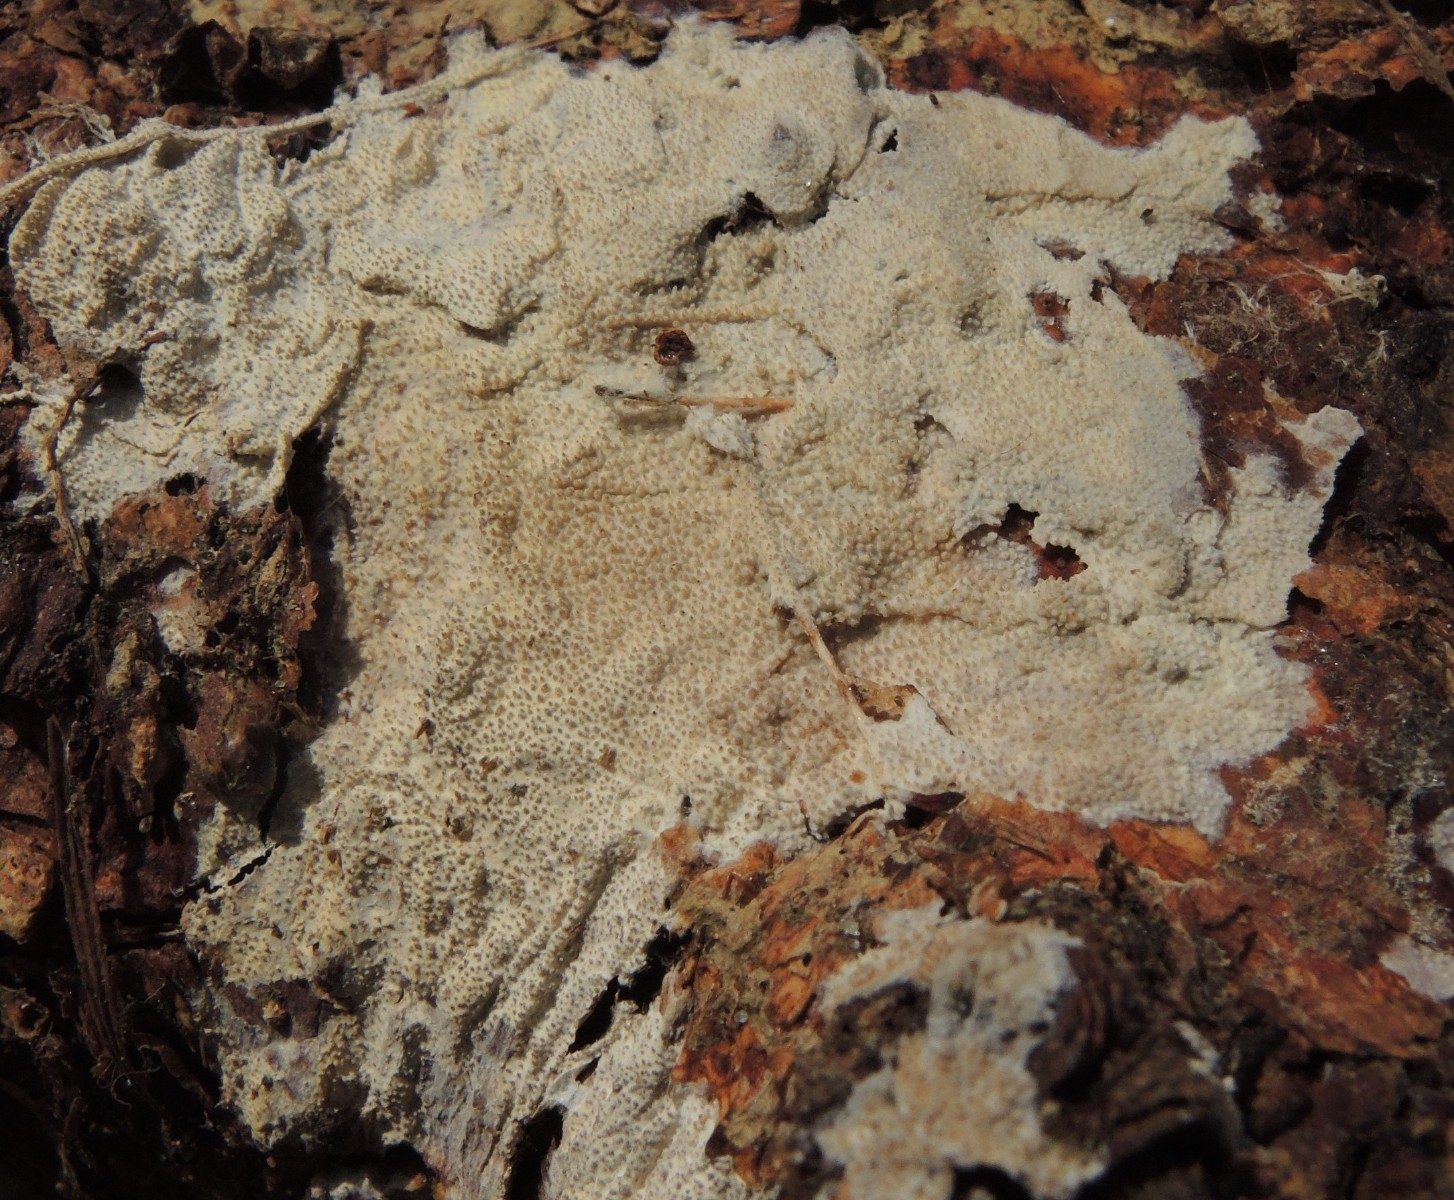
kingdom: Fungi
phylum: Basidiomycota
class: Agaricomycetes
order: Hymenochaetales
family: Rickenellaceae
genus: Resinicium
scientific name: Resinicium bicolor
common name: almindelig vokstand
